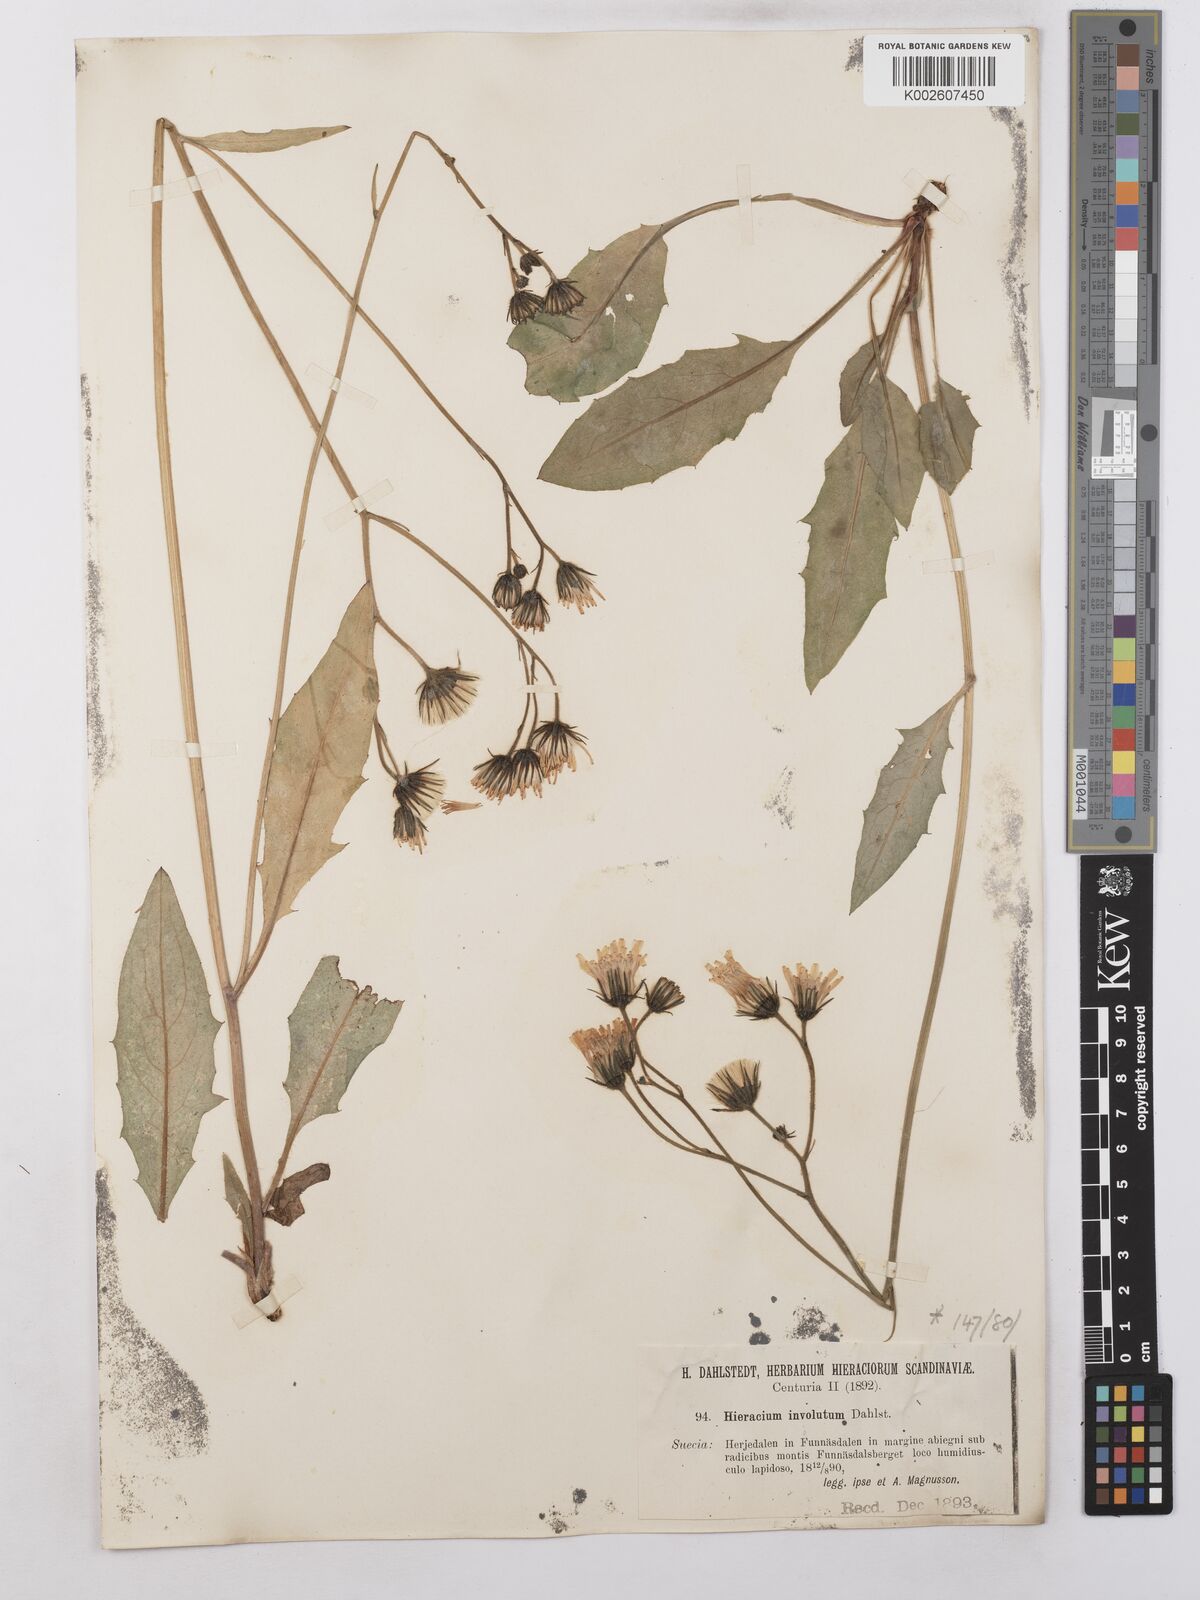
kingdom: Plantae
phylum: Tracheophyta
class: Magnoliopsida
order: Asterales
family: Asteraceae
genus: Hieracium
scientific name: Hieracium caesium
